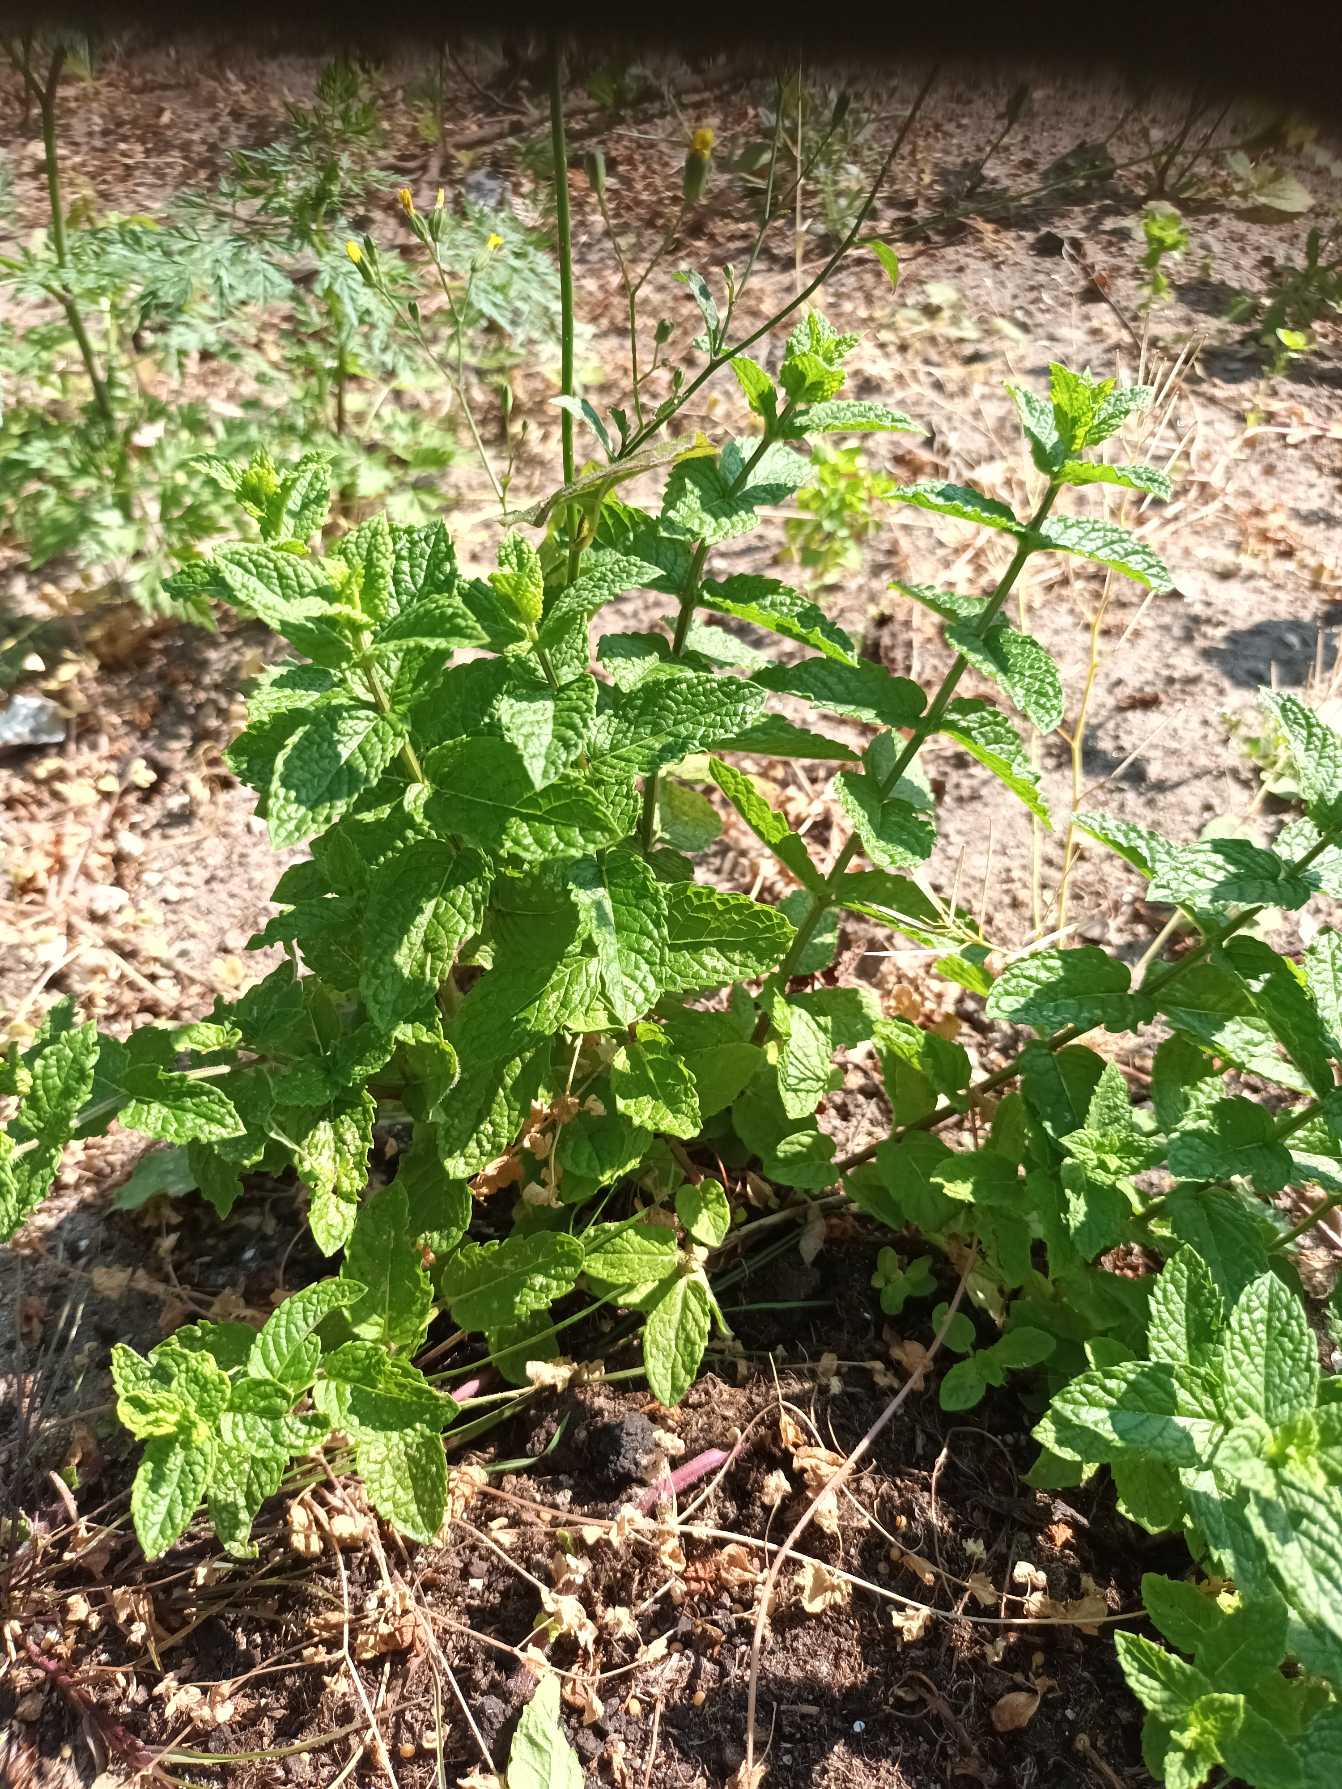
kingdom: Plantae
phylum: Tracheophyta
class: Magnoliopsida
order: Lamiales
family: Lamiaceae
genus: Mentha
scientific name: Mentha spicata
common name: Grøn mynte
